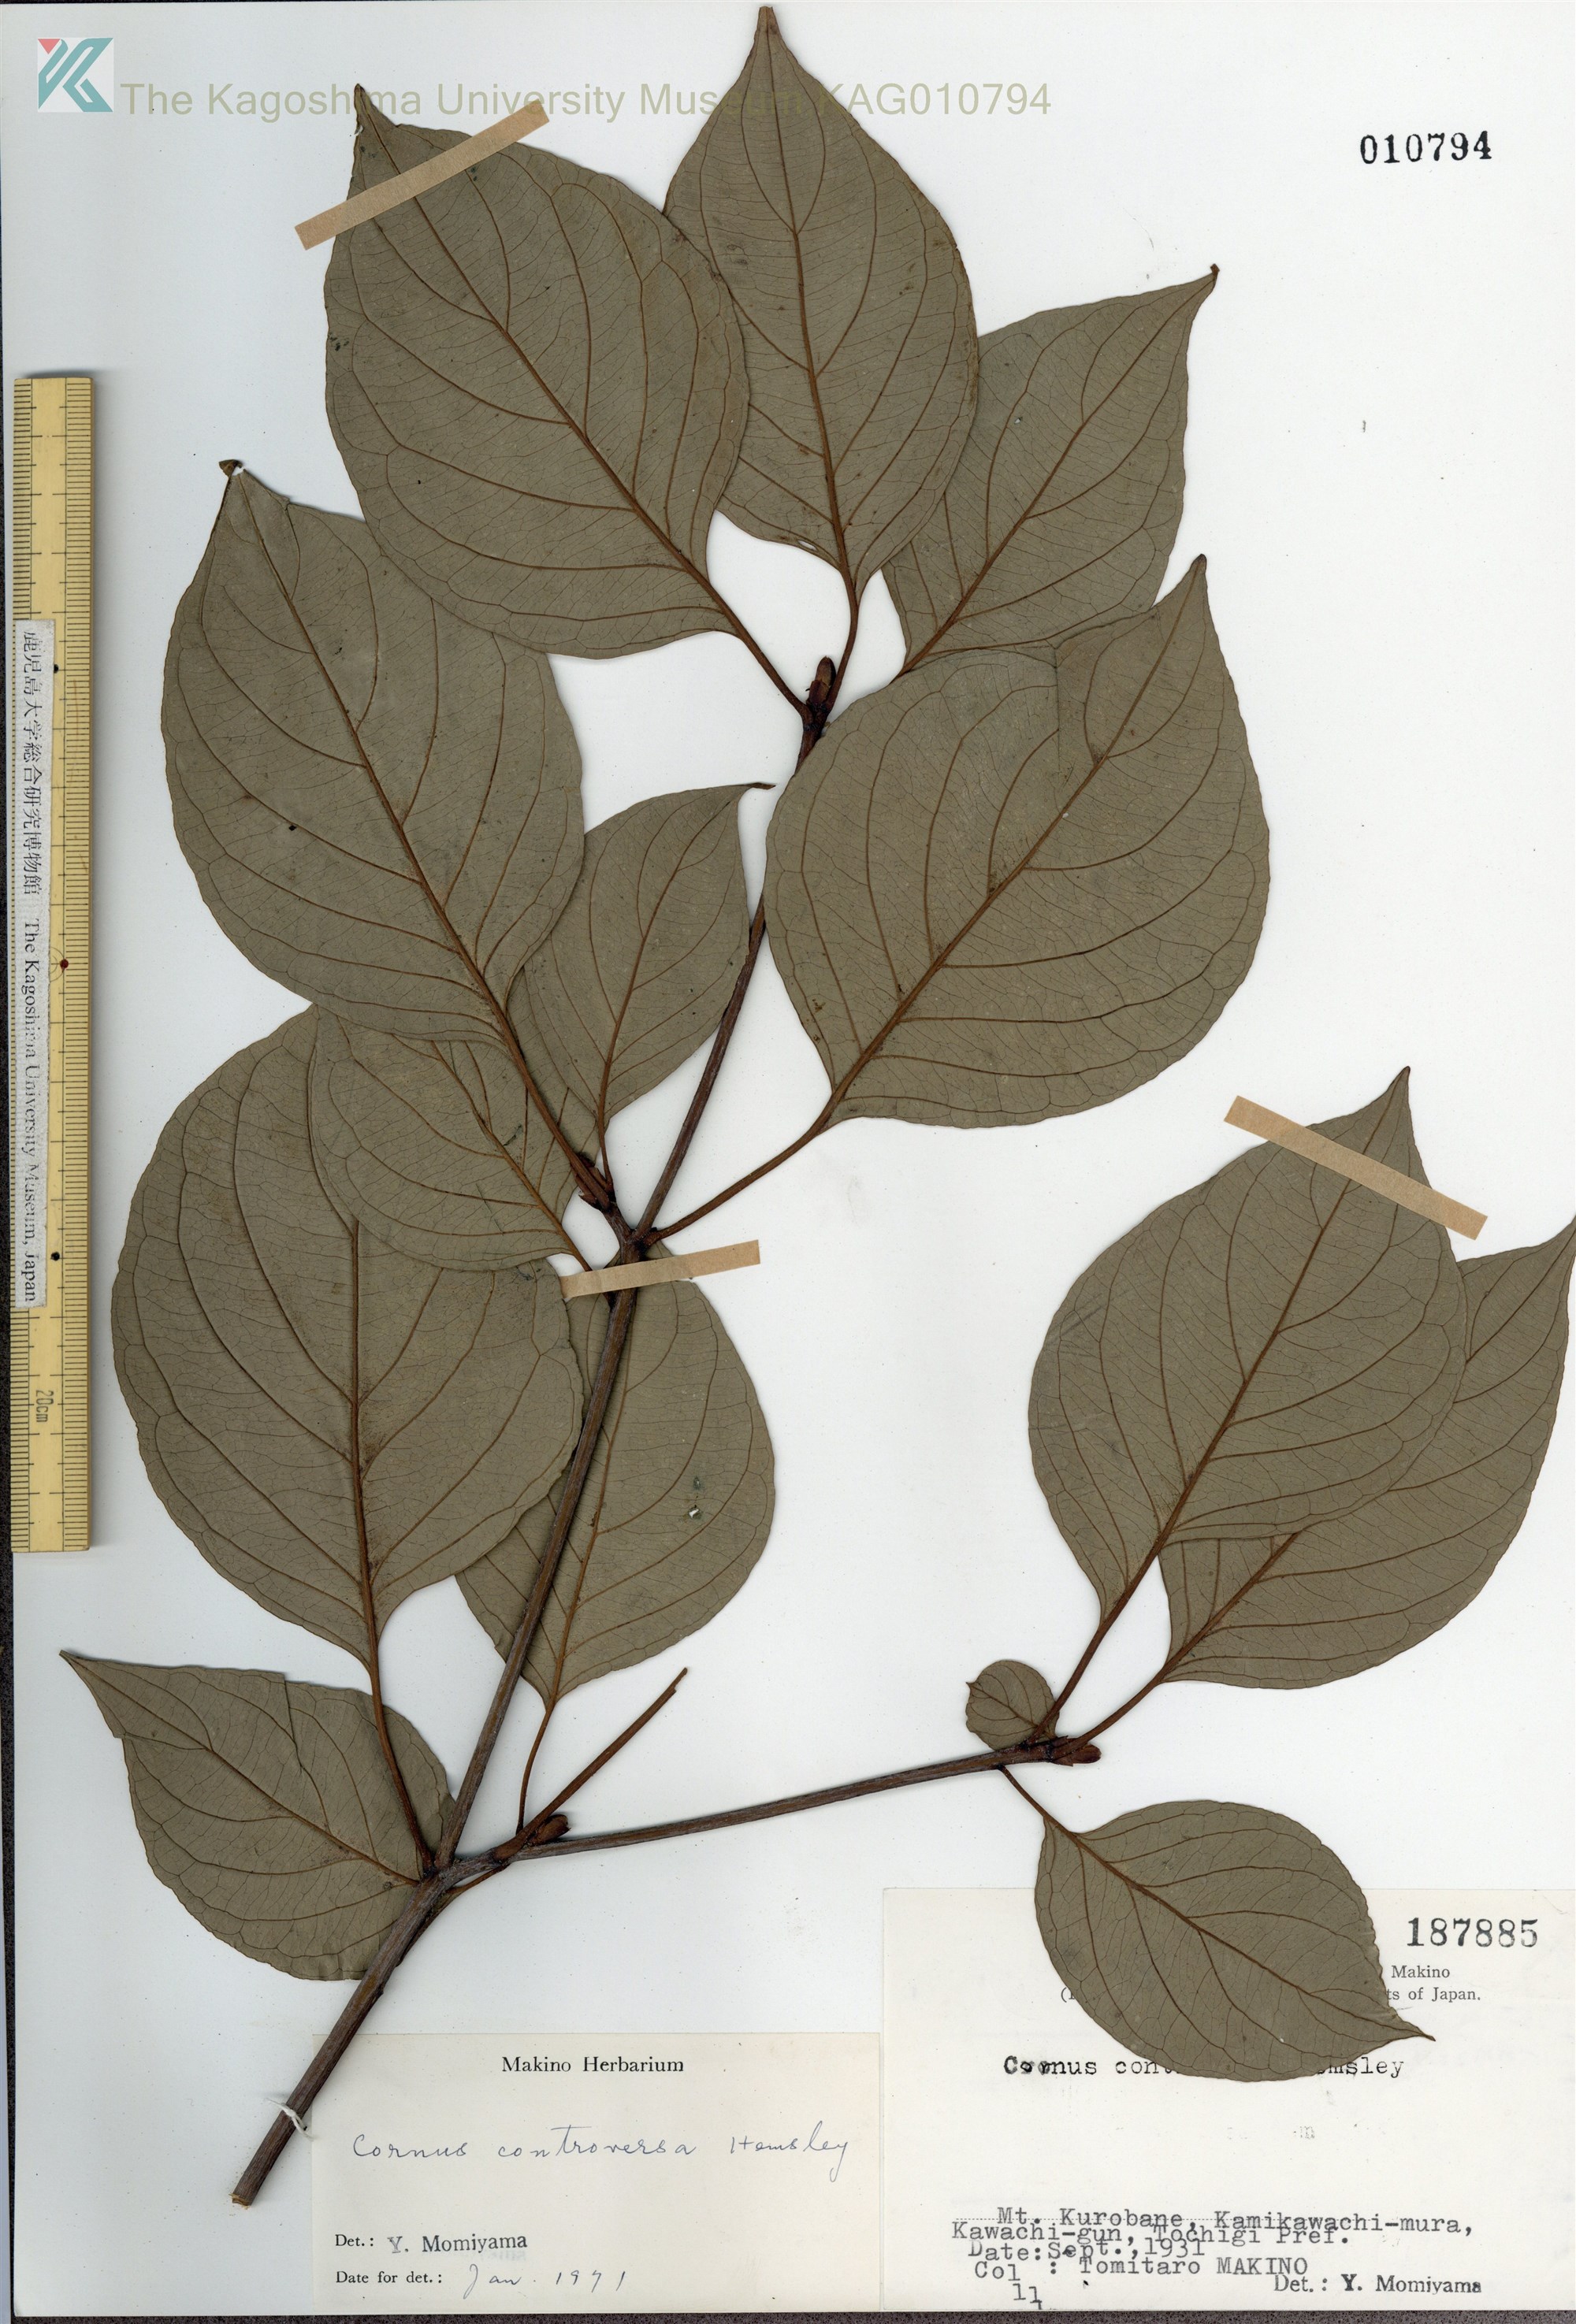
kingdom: Plantae
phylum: Tracheophyta
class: Magnoliopsida
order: Cornales
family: Cornaceae
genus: Cornus
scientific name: Cornus controversa
